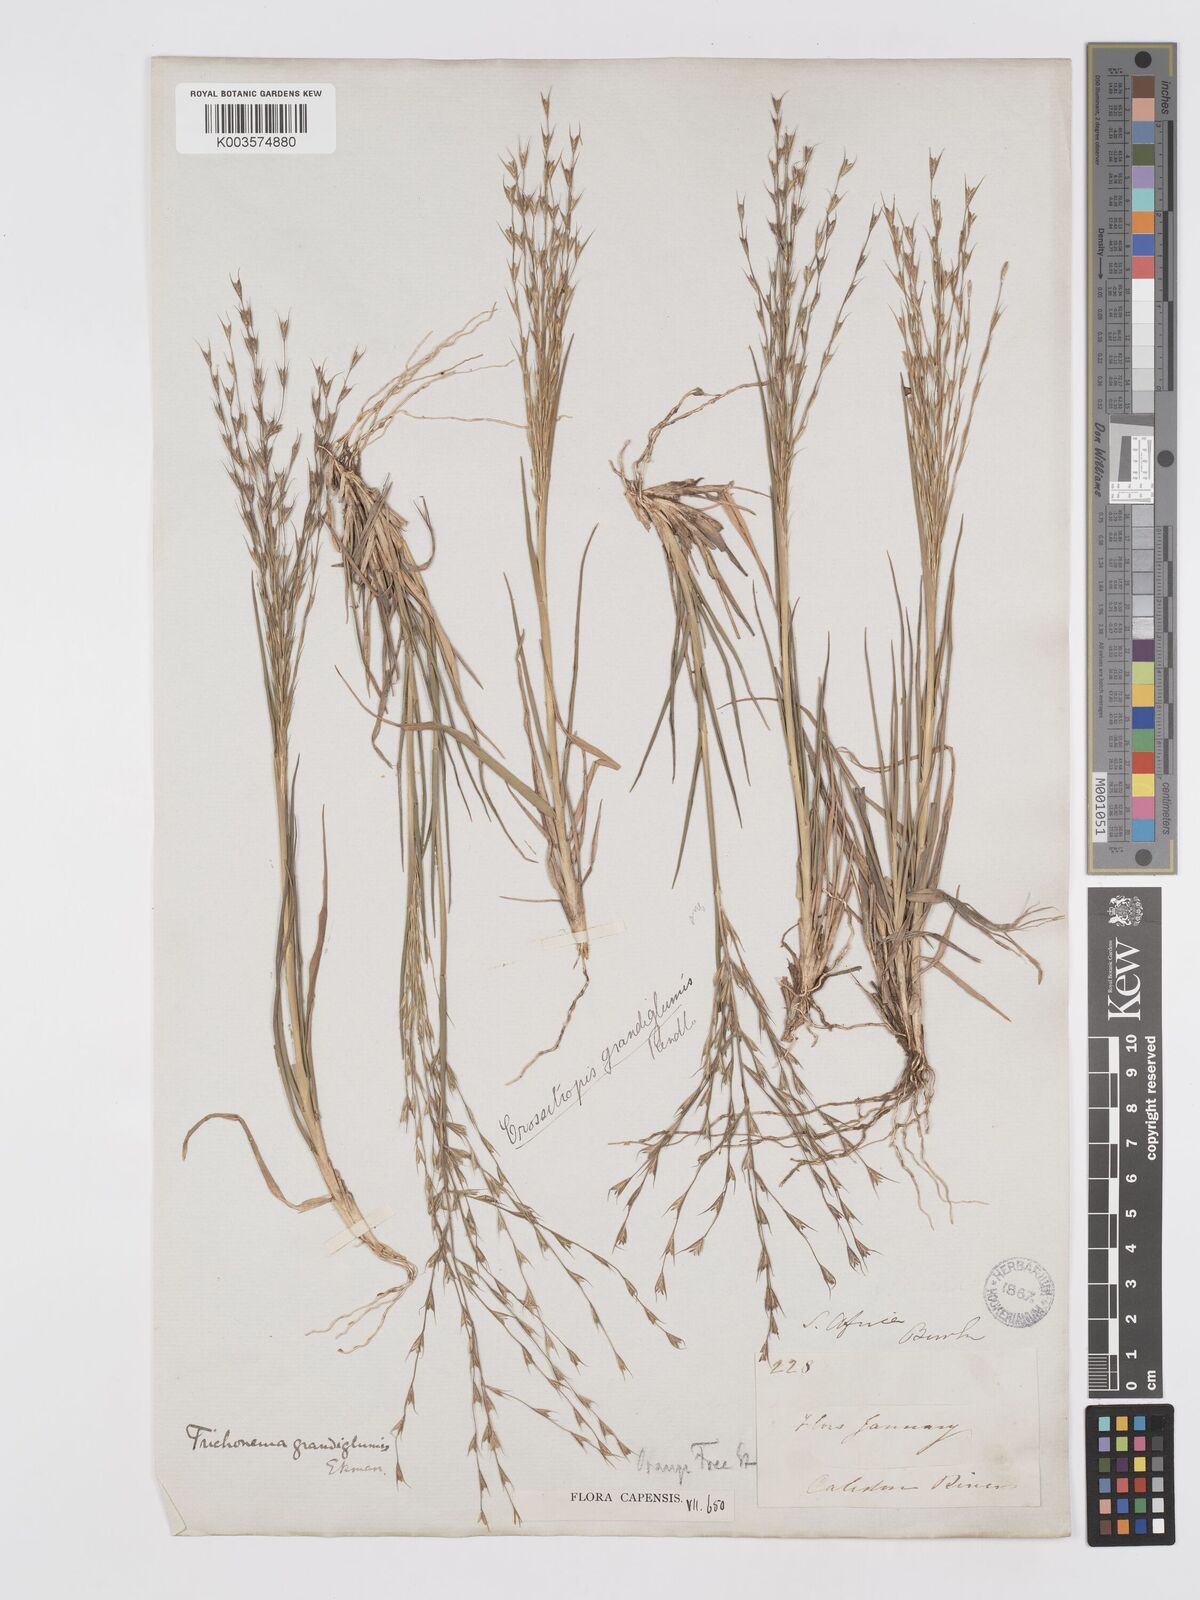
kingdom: Plantae
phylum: Tracheophyta
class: Liliopsida
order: Poales
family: Poaceae
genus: Trichoneura
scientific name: Trichoneura grandiglumis
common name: Rolling grass
